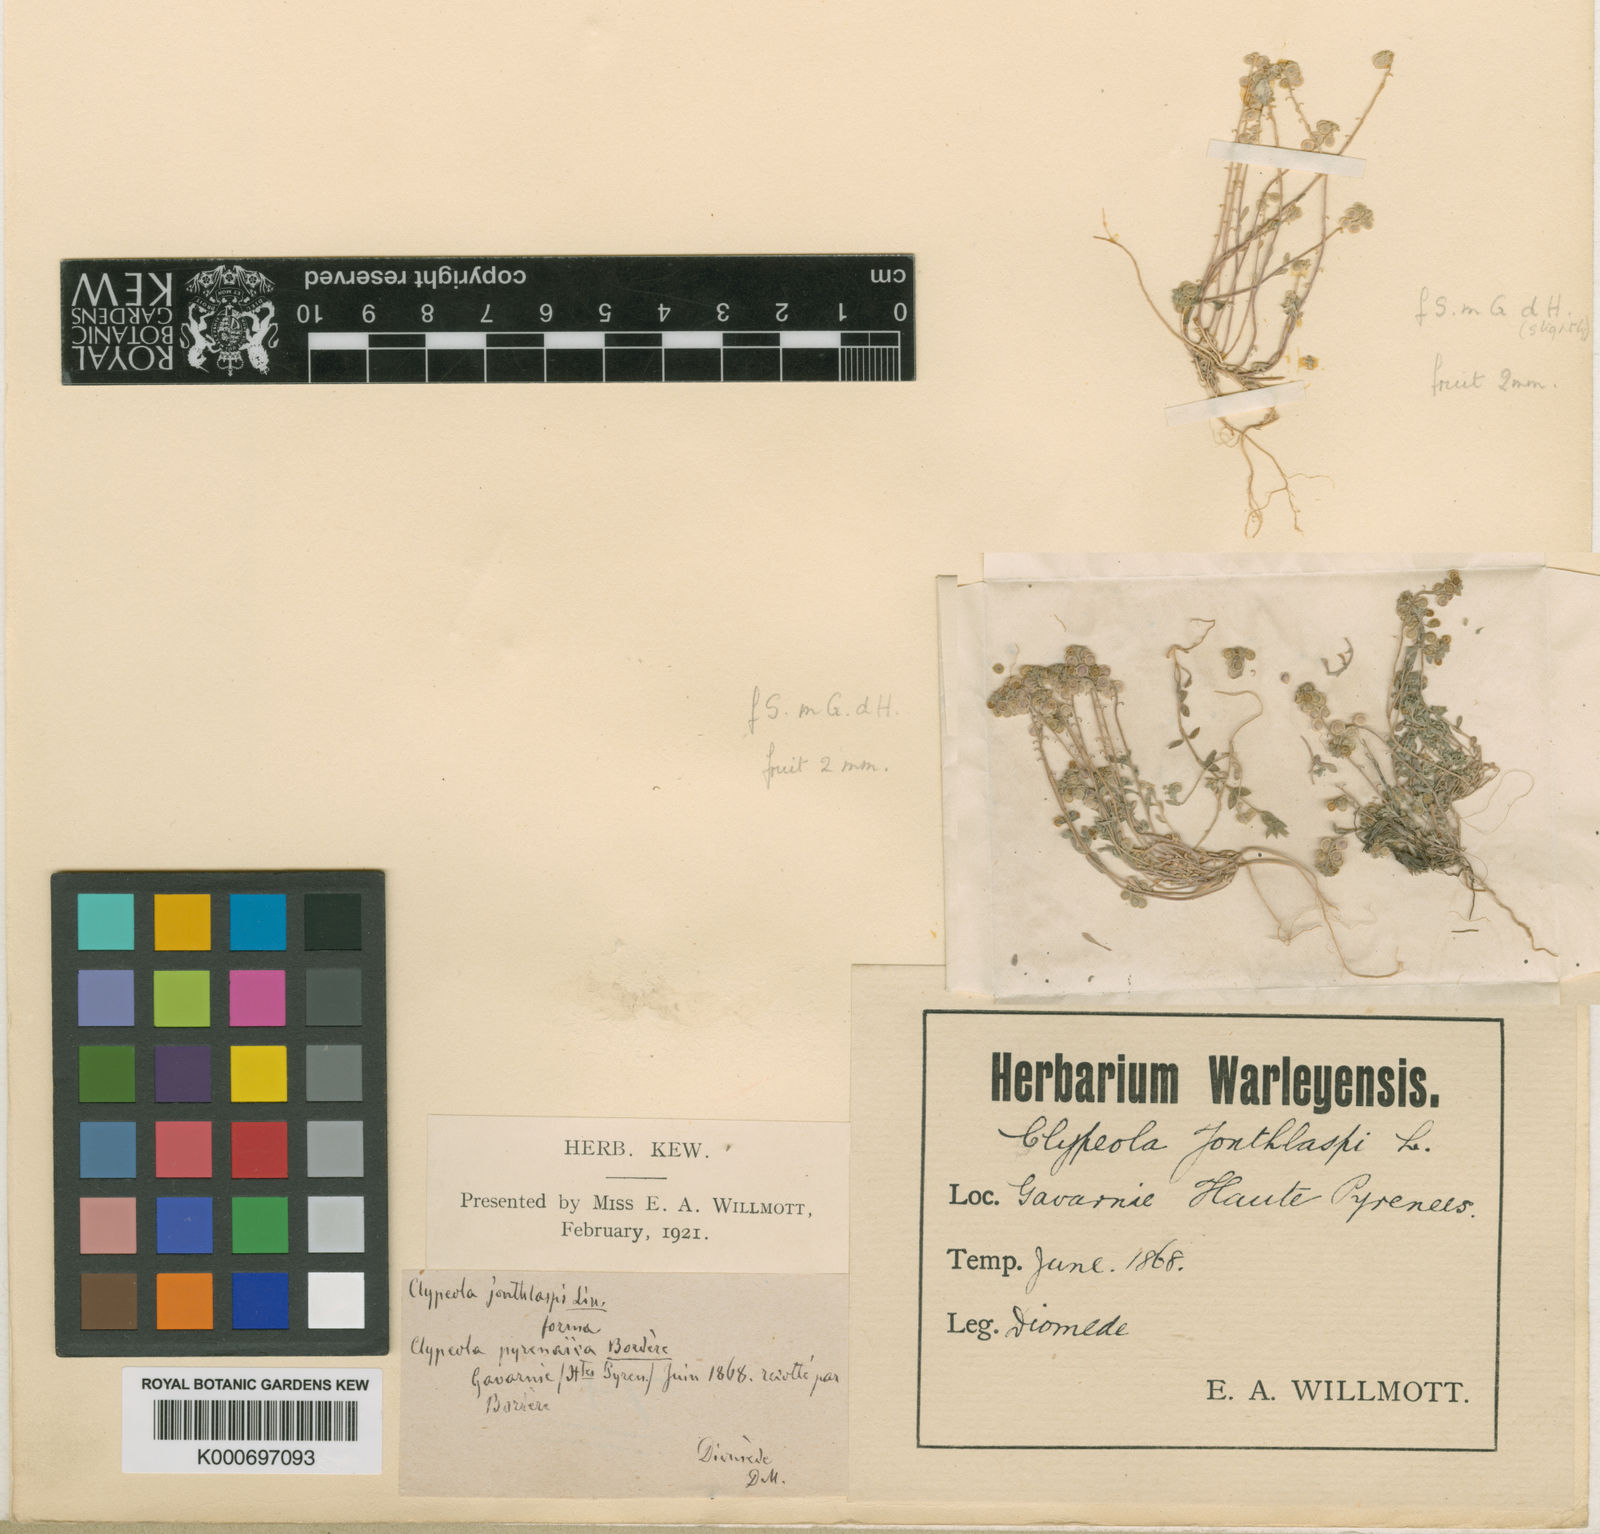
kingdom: Plantae
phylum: Tracheophyta
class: Magnoliopsida
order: Brassicales
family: Brassicaceae
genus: Clypeola
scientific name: Clypeola jonthlaspi
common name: Disk cress
